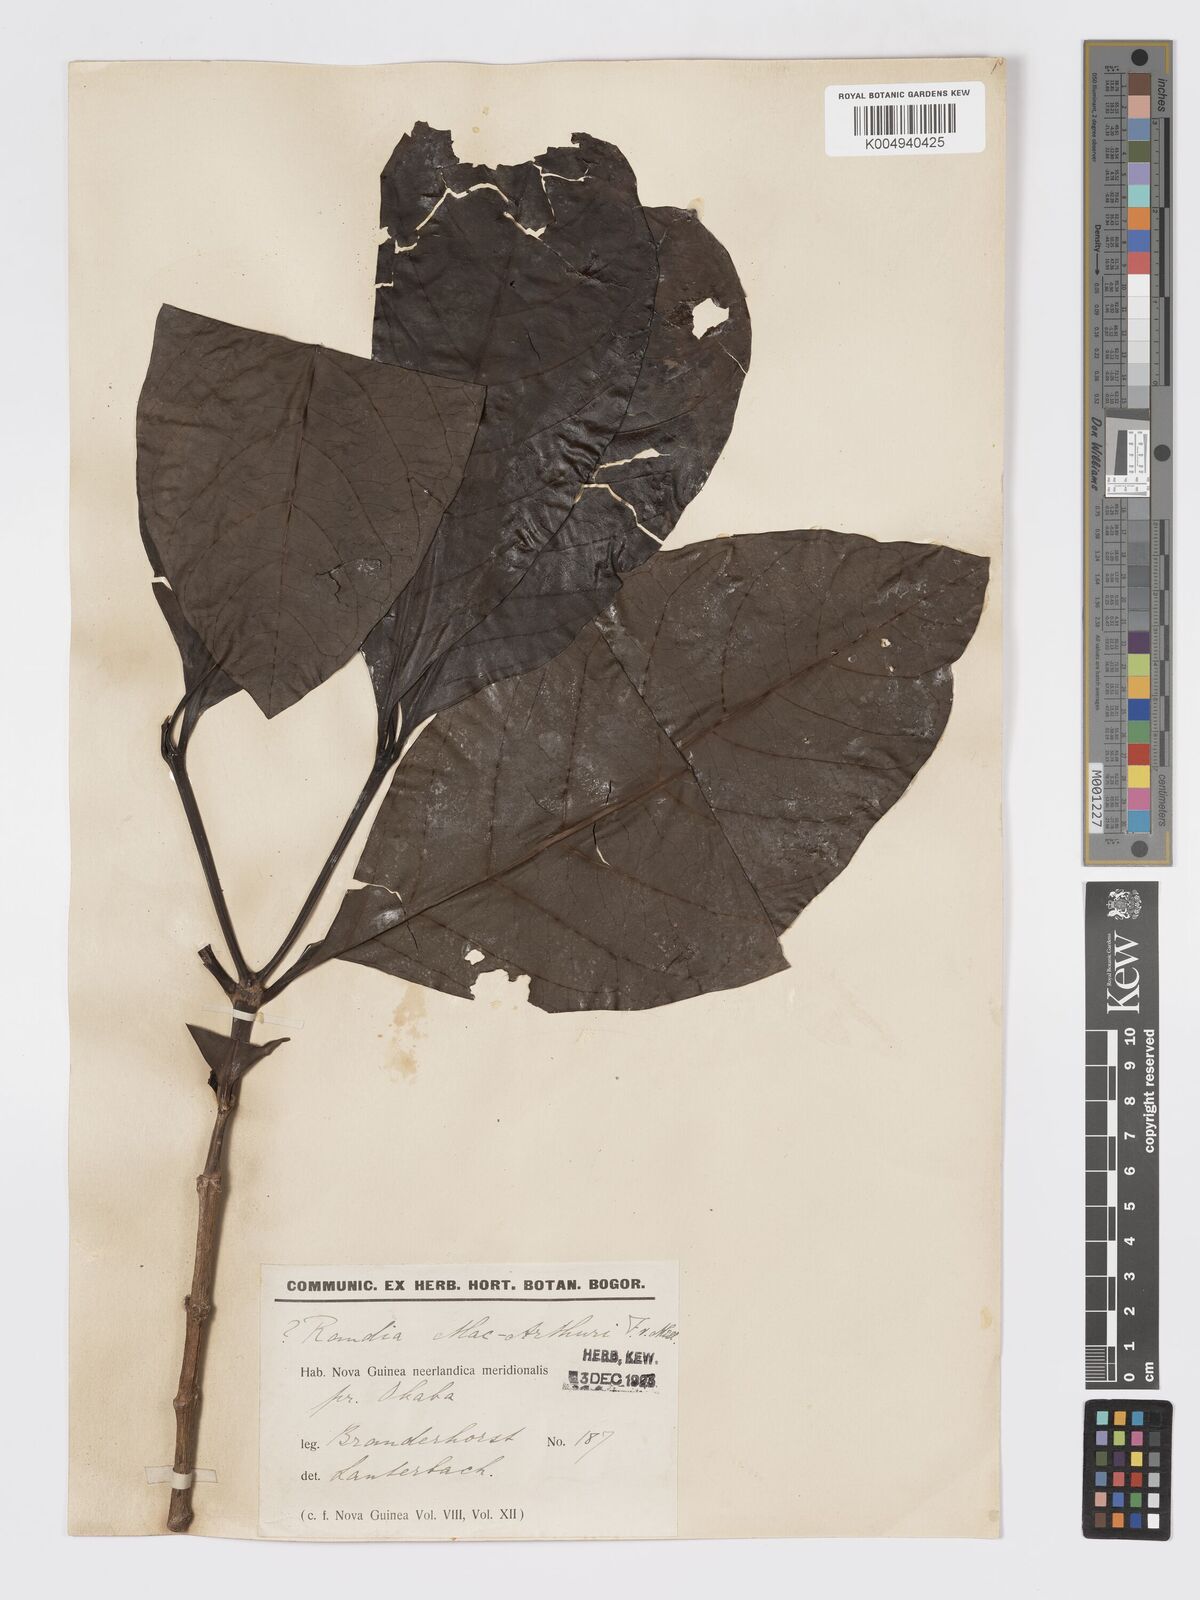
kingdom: Plantae
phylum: Tracheophyta
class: Magnoliopsida
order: Gentianales
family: Rubiaceae
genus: Atractocarpus
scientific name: Atractocarpus macarthurii
